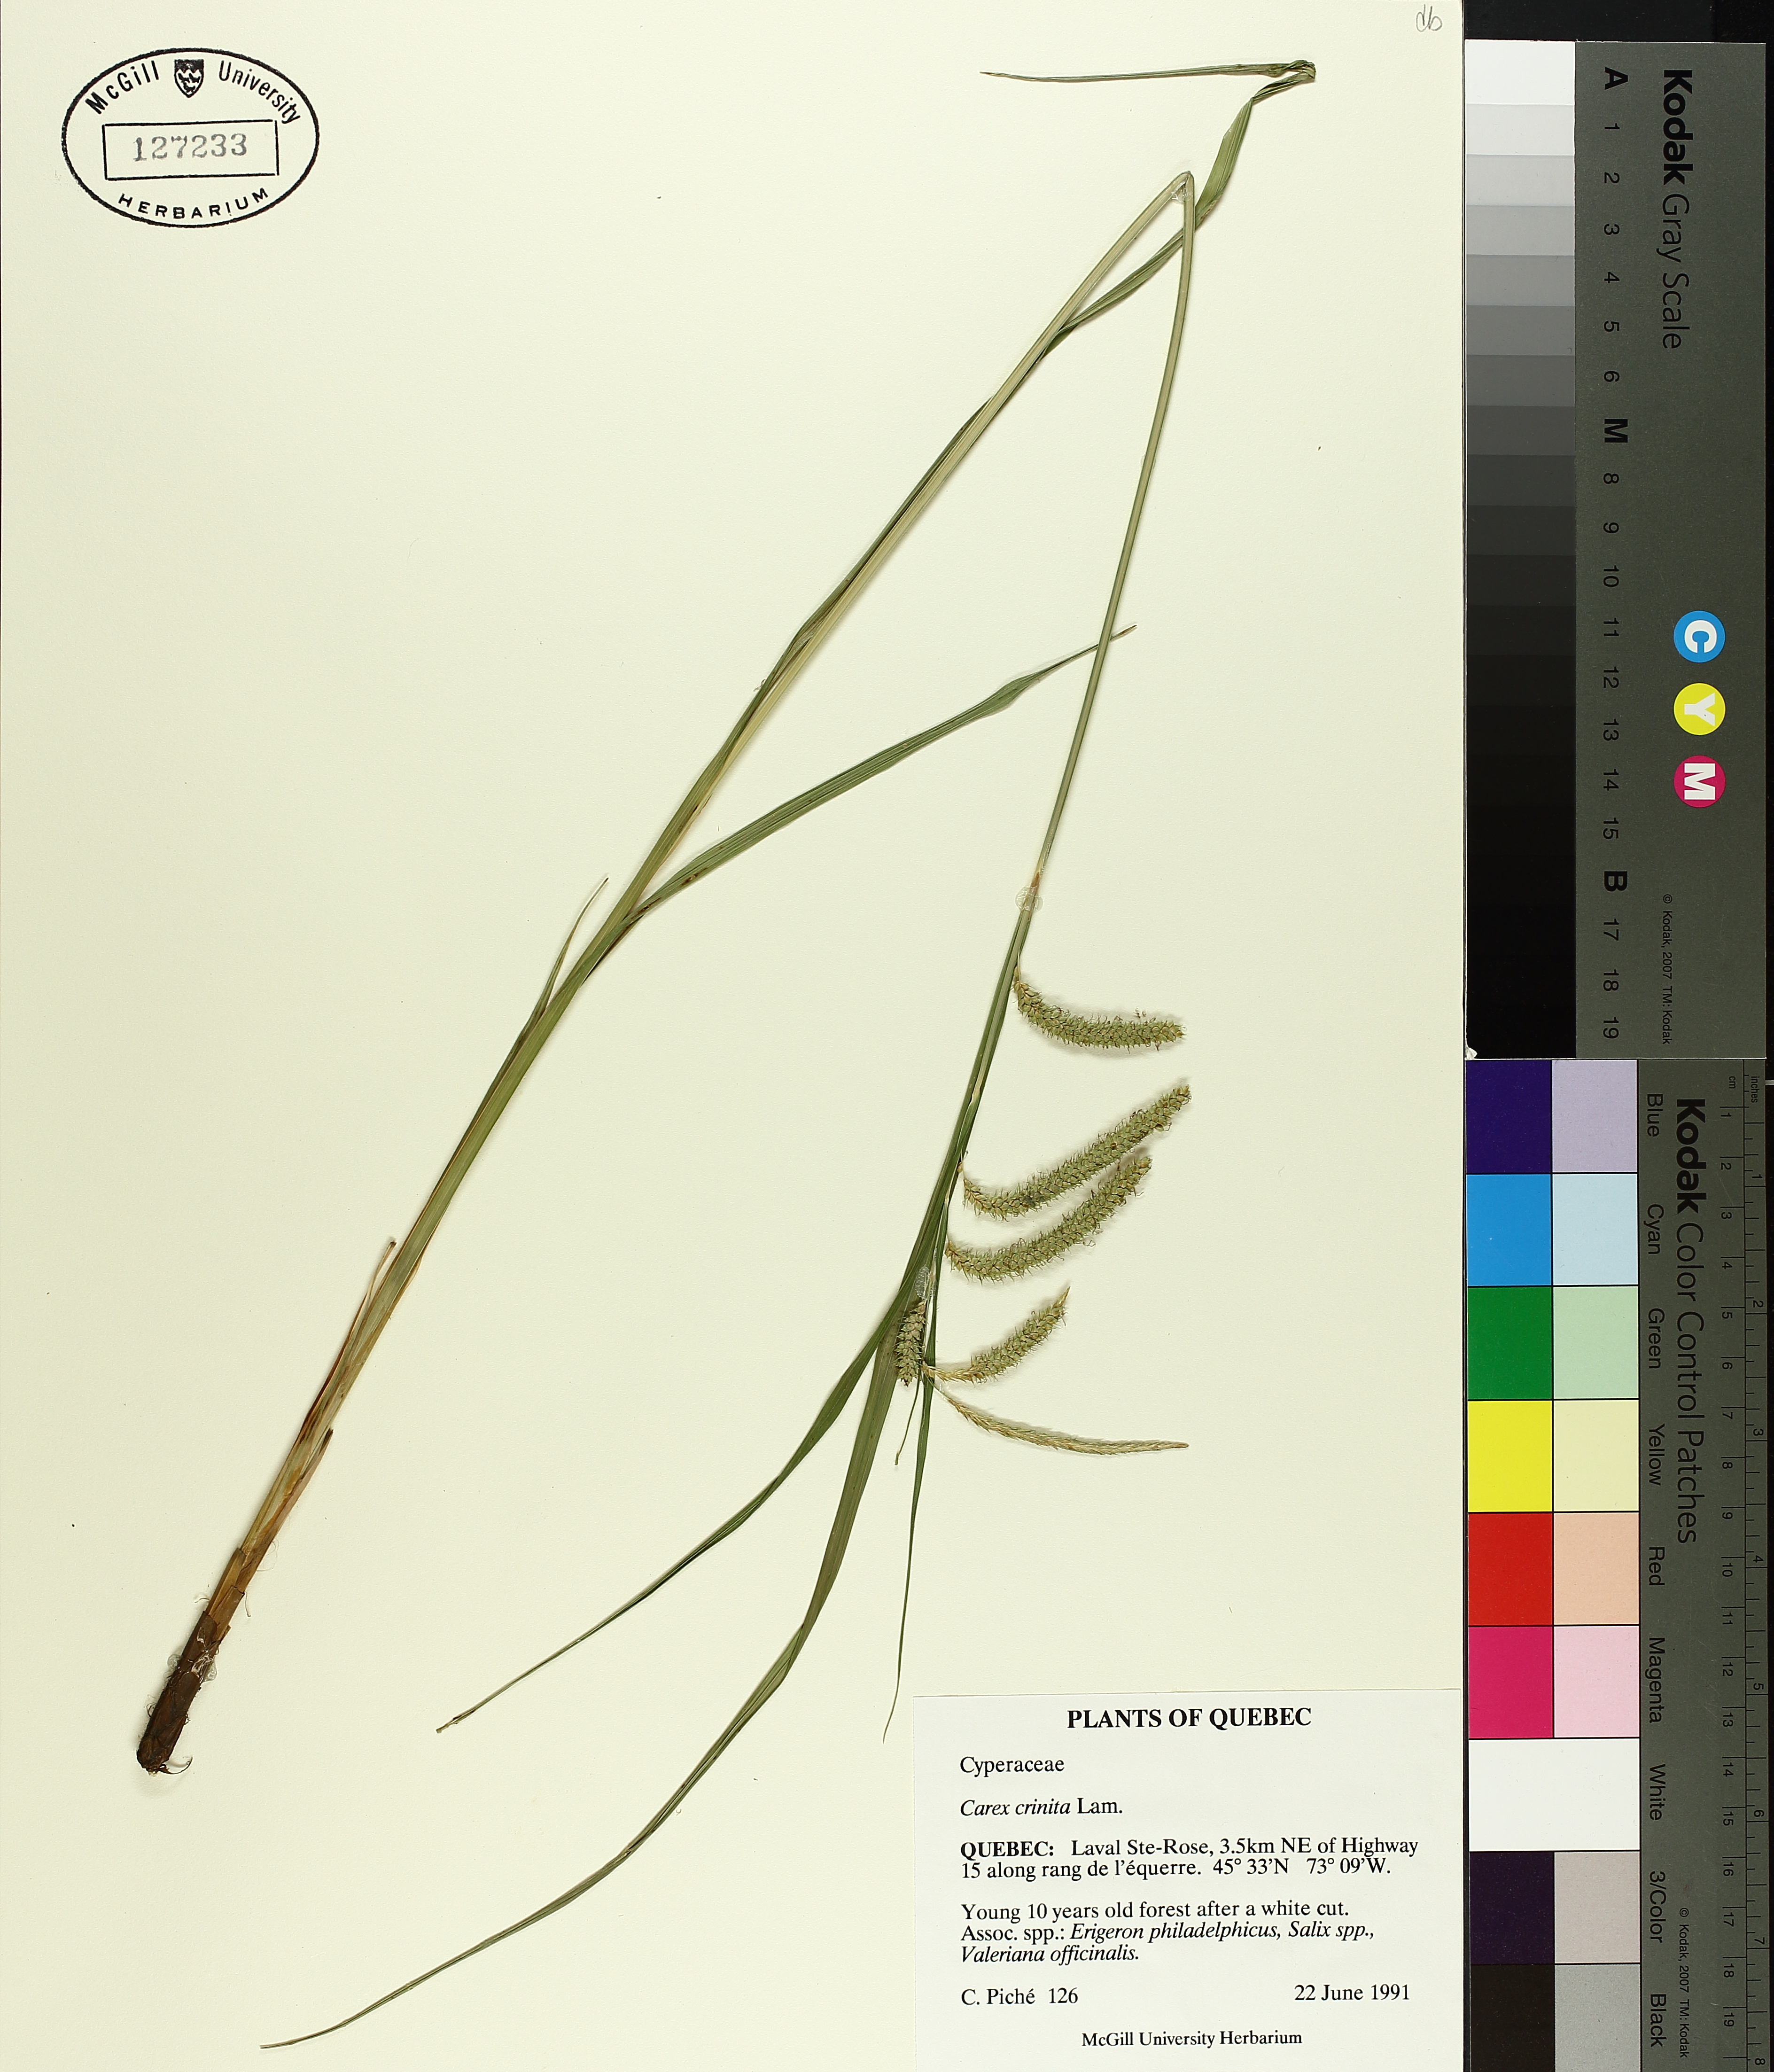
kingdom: Plantae
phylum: Tracheophyta
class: Liliopsida
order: Poales
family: Cyperaceae
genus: Carex
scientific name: Carex crinita
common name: Fringed sedge
